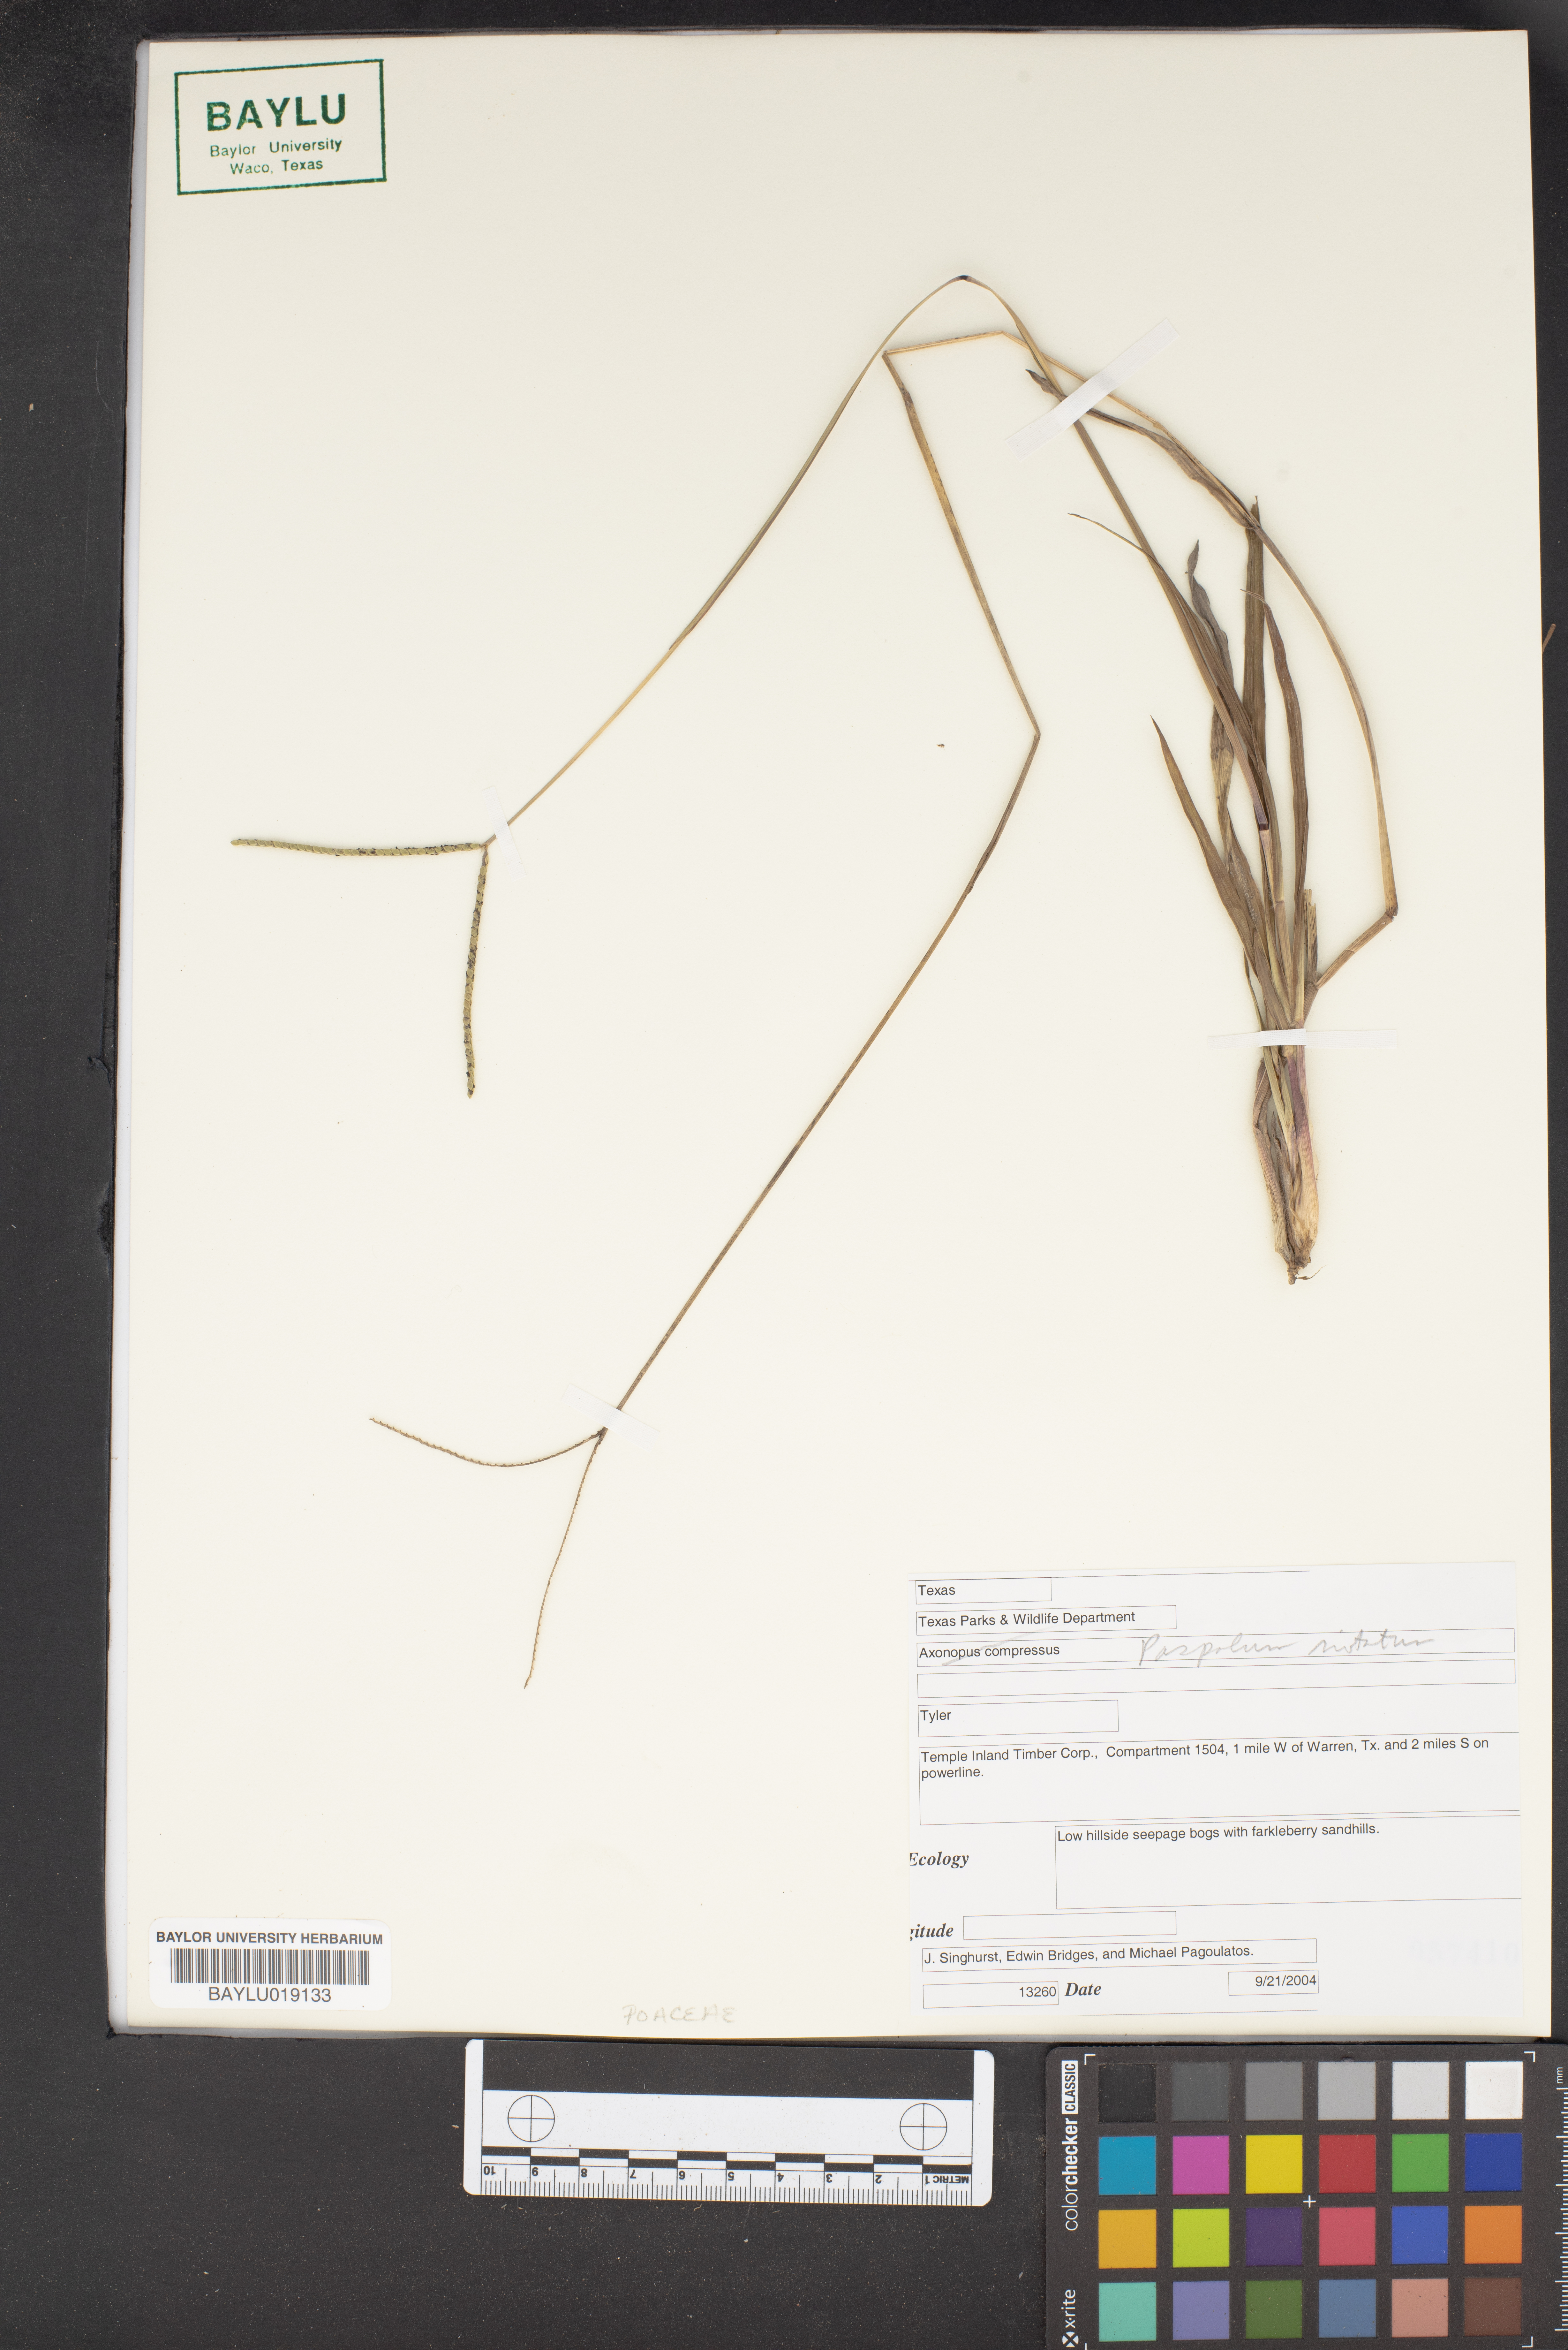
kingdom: Plantae
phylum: Tracheophyta
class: Liliopsida
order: Poales
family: Poaceae
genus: Axonopus
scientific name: Axonopus compressus
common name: American carpet grass
